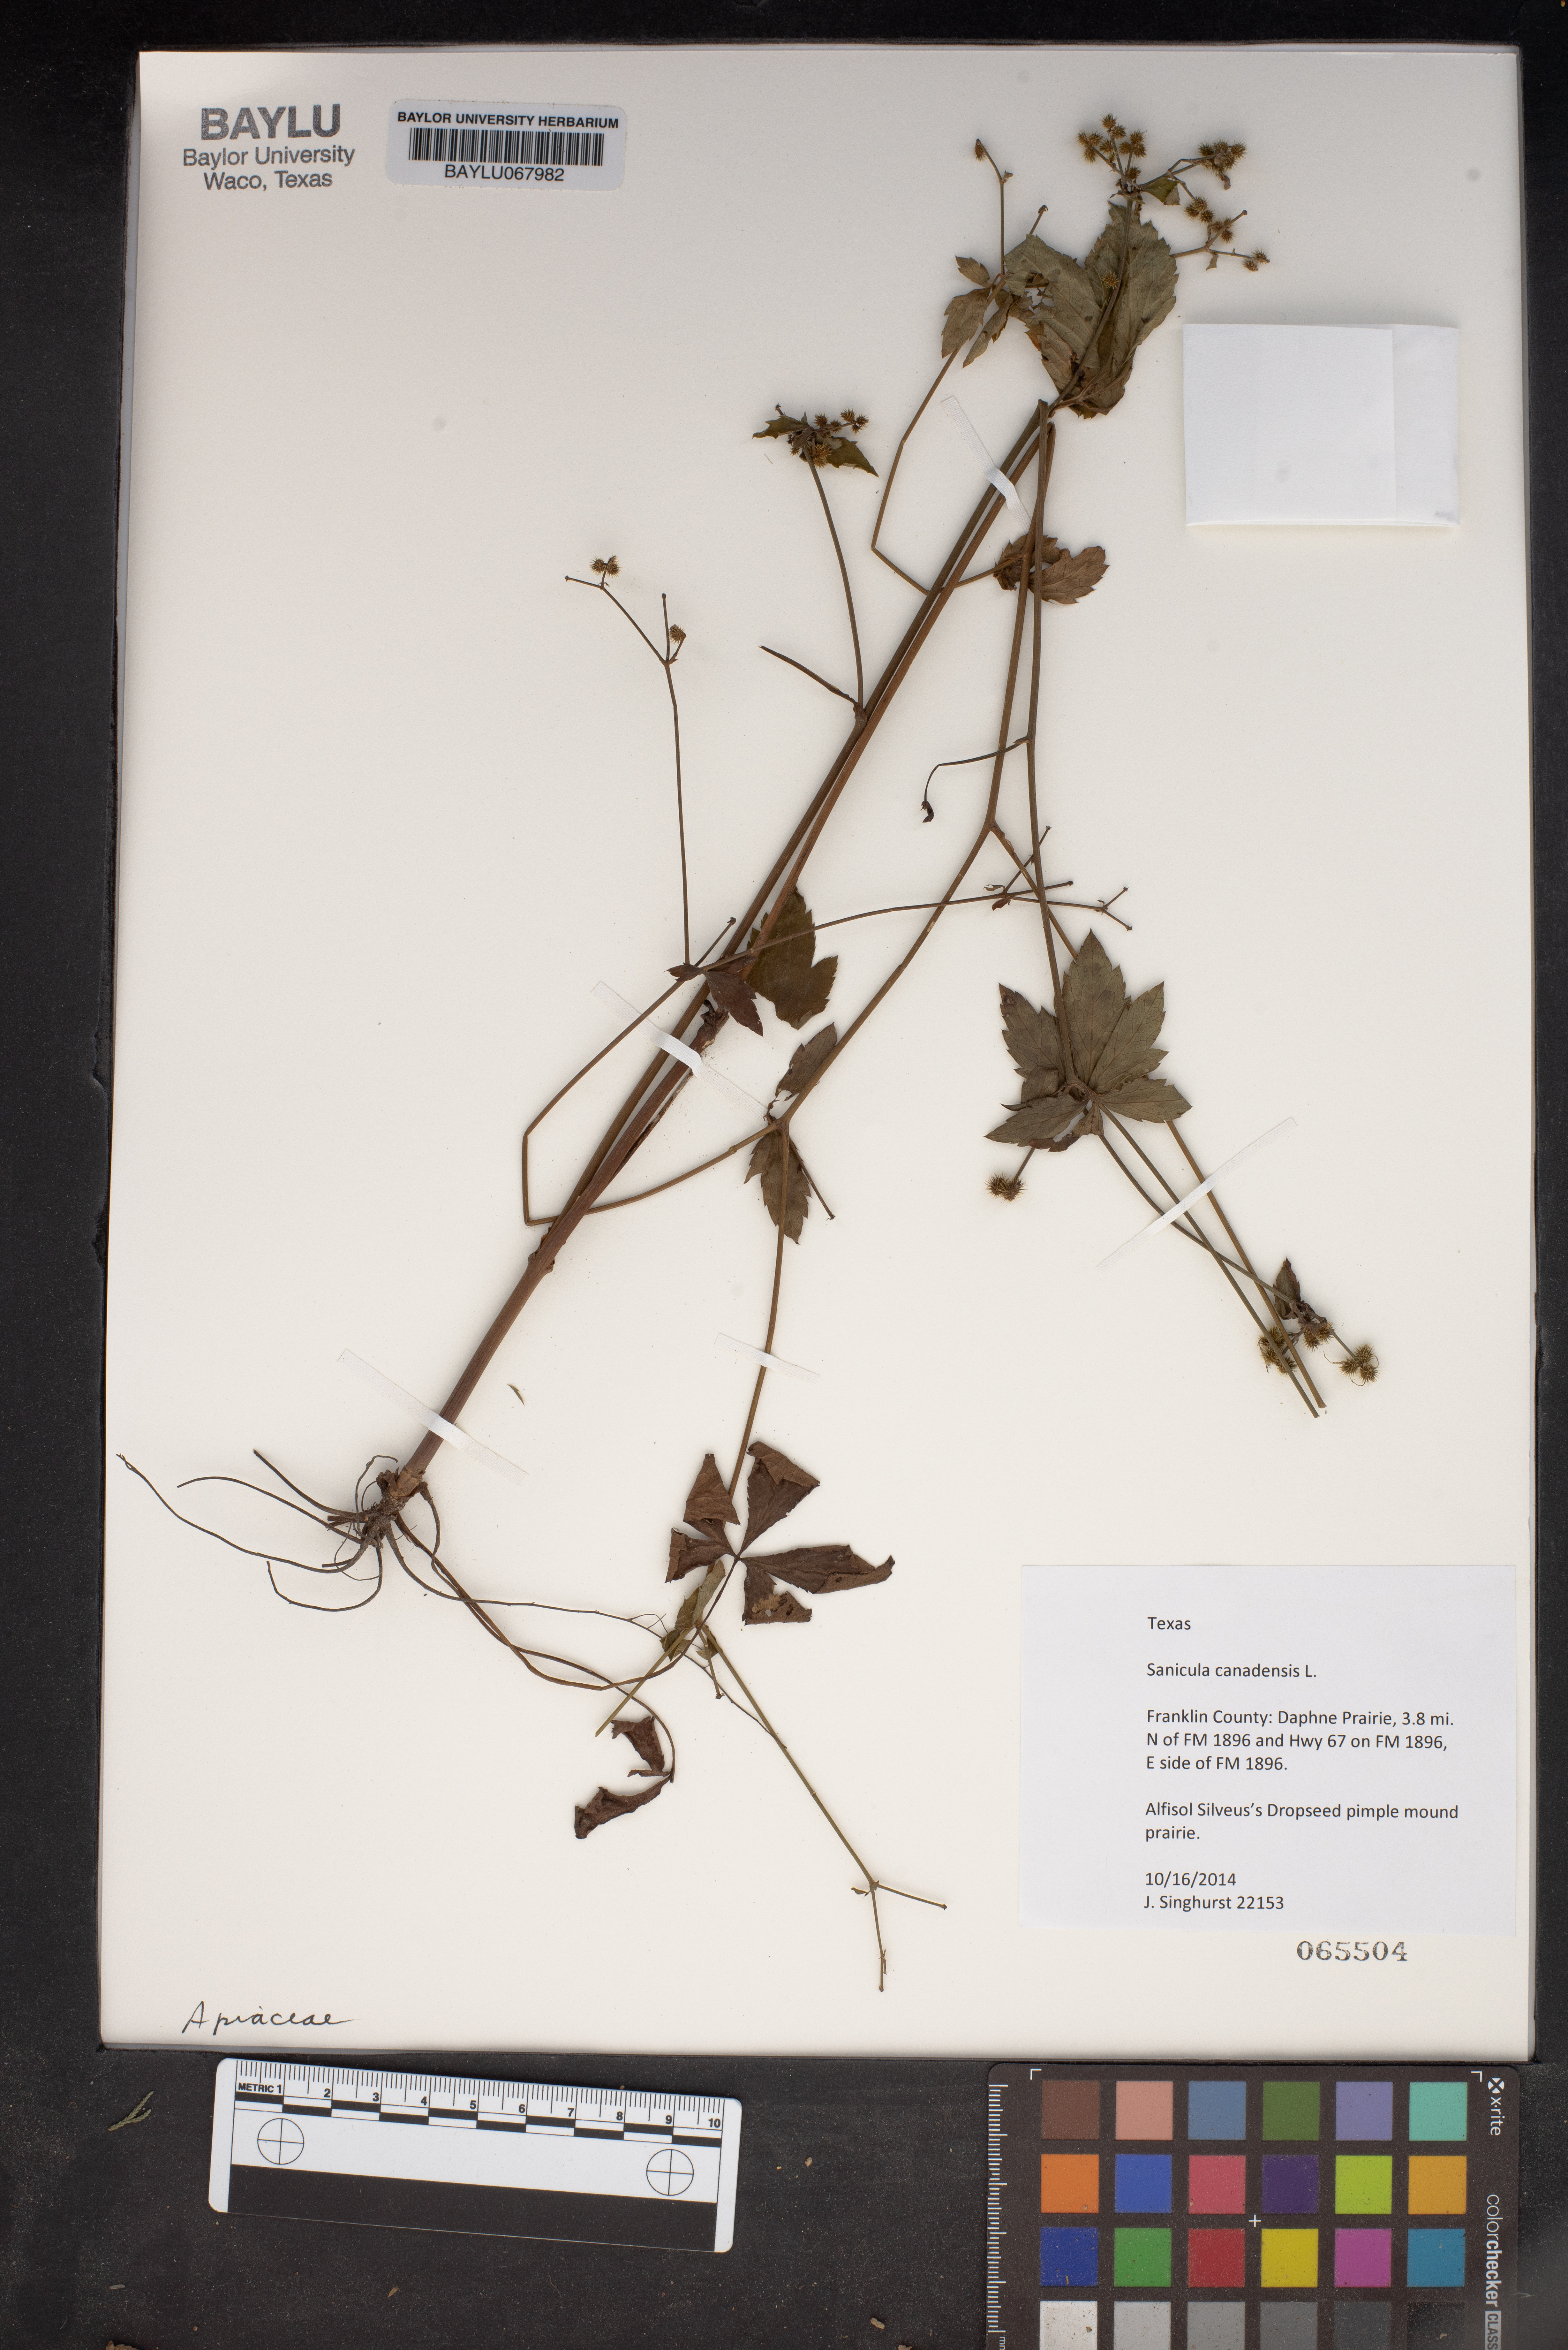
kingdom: Plantae
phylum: Tracheophyta
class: Magnoliopsida
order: Apiales
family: Apiaceae
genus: Sanicula
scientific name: Sanicula canadensis
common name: Canada sanicle
